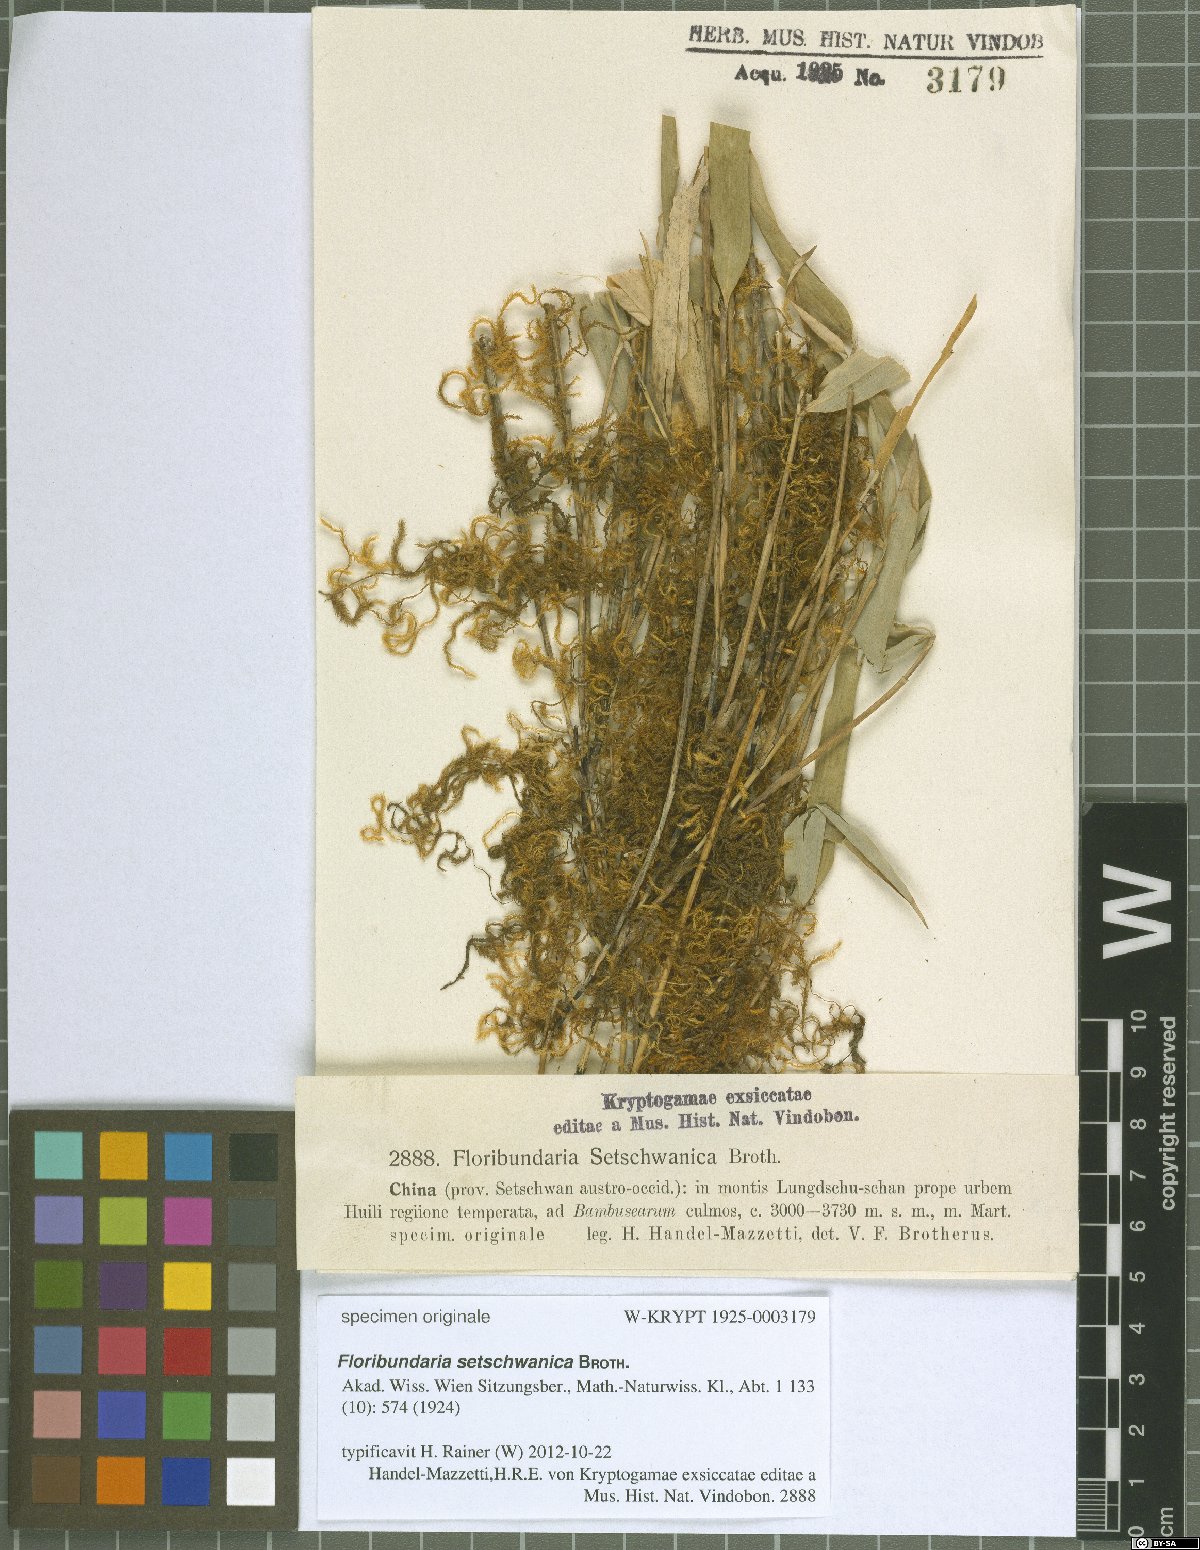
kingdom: Plantae
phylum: Bryophyta
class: Bryopsida
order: Hypnales
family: Meteoriaceae
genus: Floribundaria
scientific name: Floribundaria setschwanica
